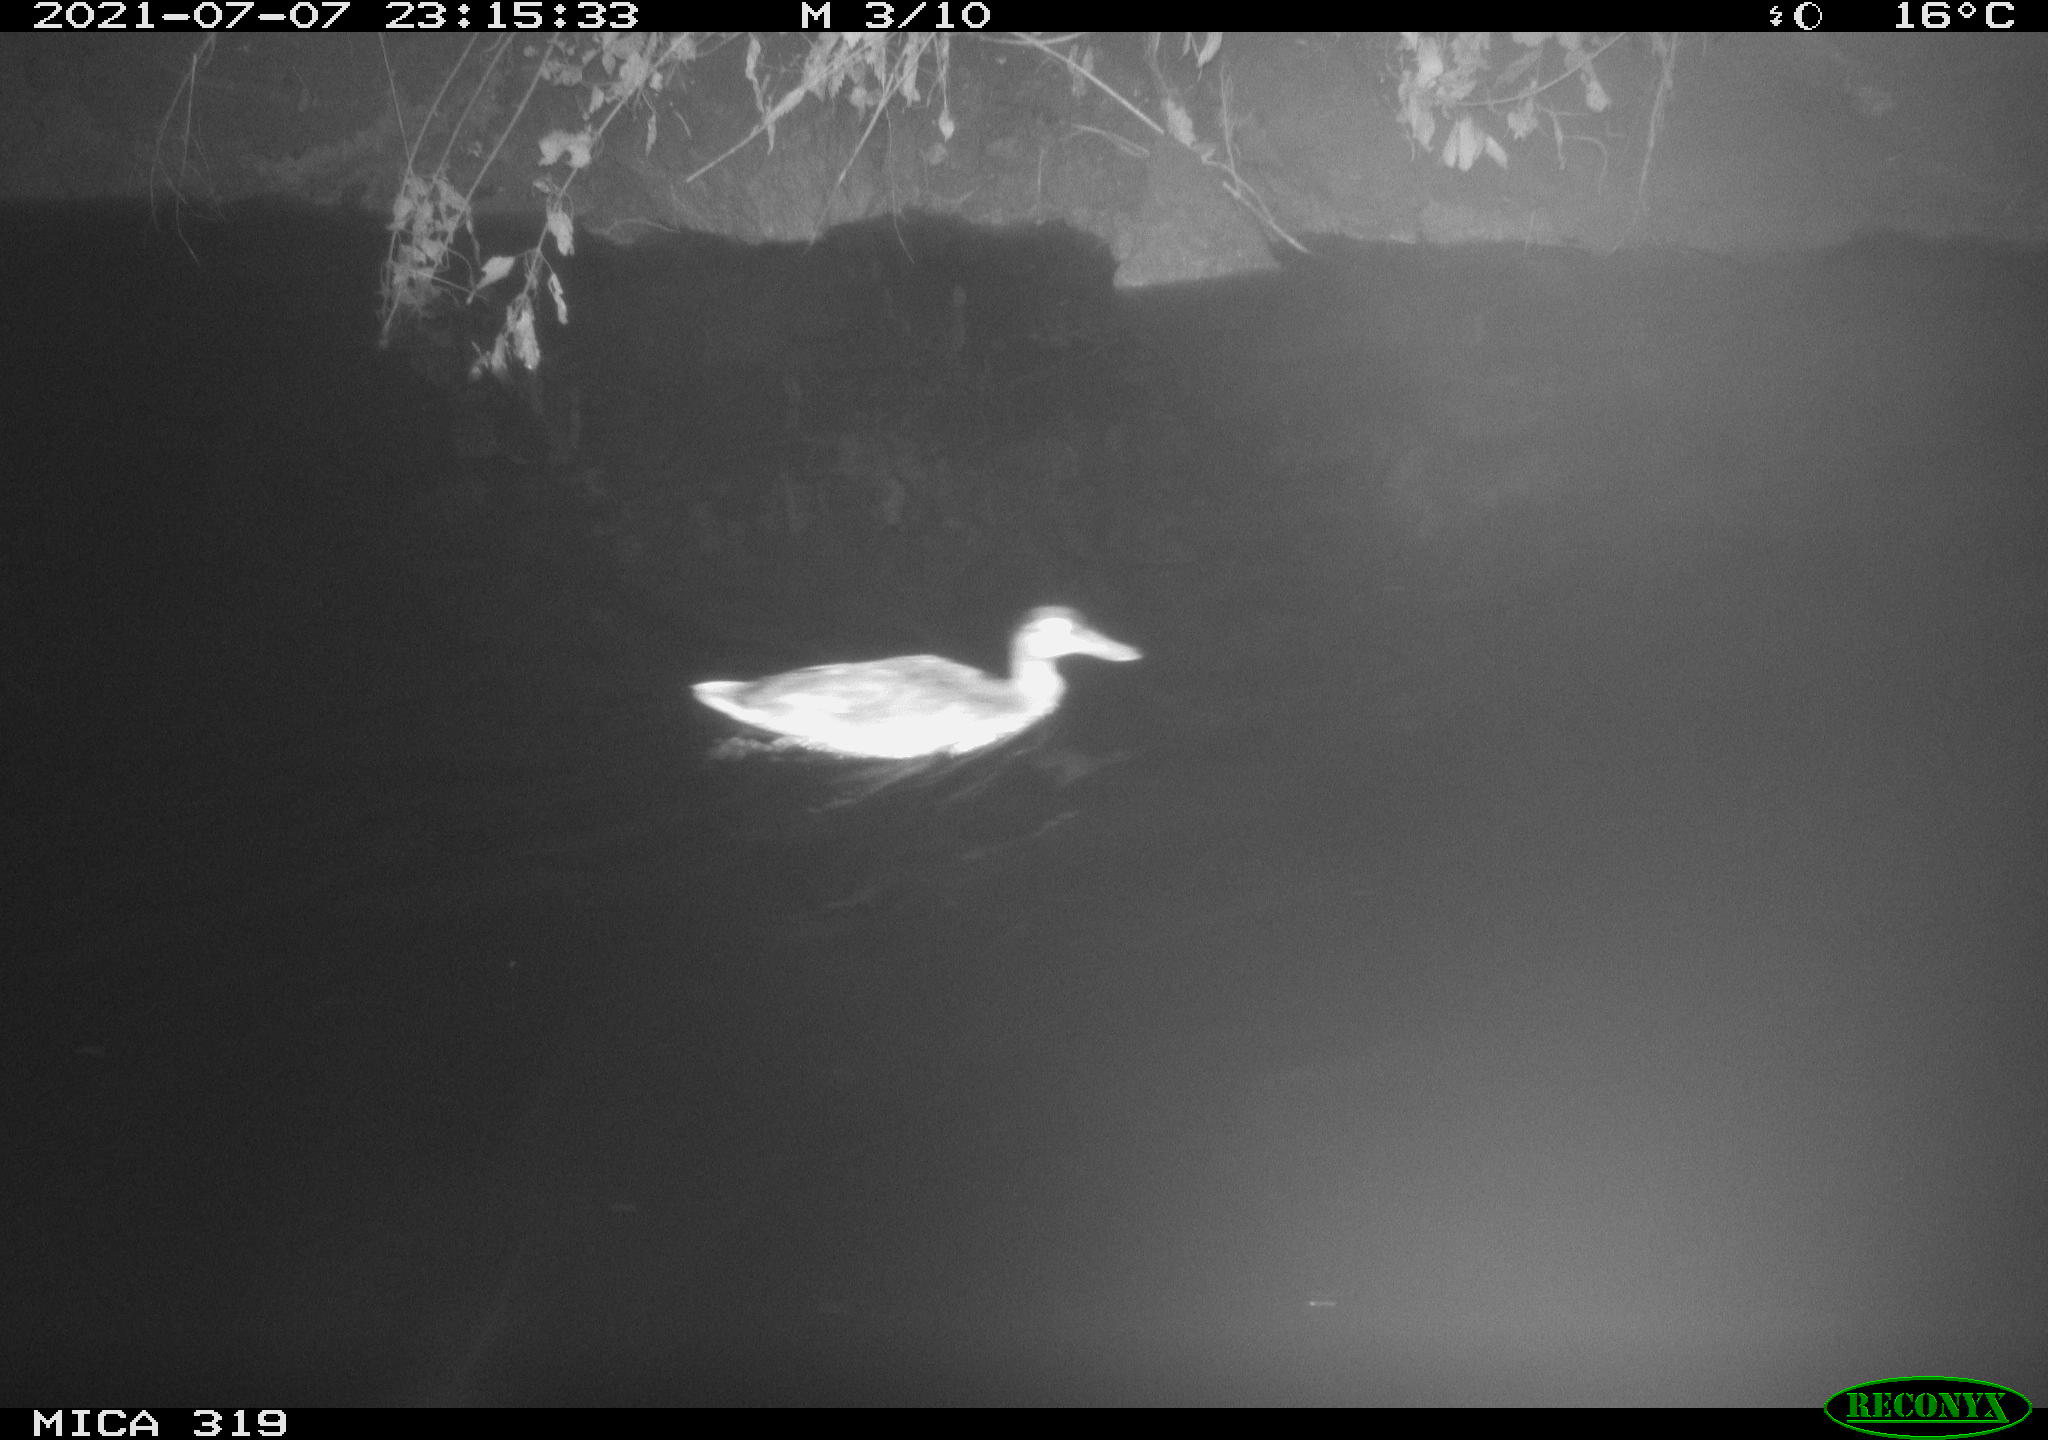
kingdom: Animalia
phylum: Chordata
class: Aves
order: Anseriformes
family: Anatidae
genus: Anas
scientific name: Anas platyrhynchos
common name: Mallard
